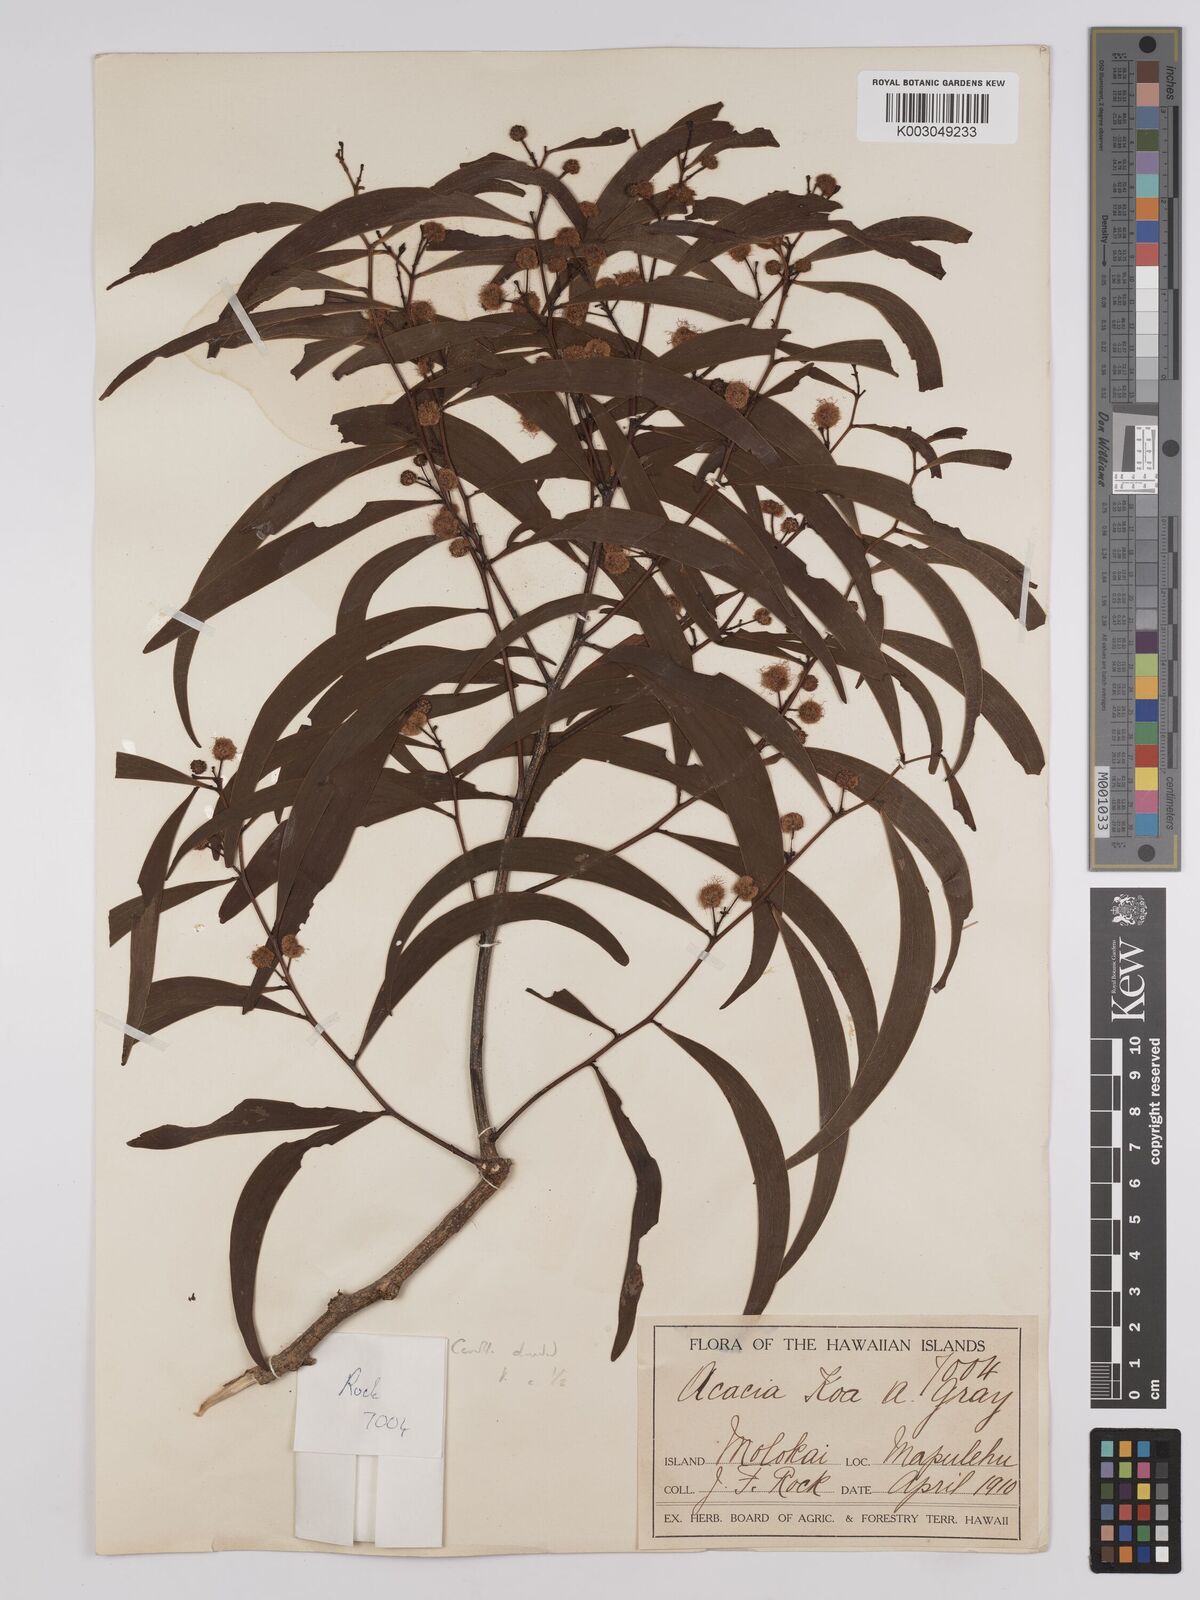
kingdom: Plantae
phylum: Tracheophyta
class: Magnoliopsida
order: Fabales
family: Fabaceae
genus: Acacia
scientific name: Acacia koa
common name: Gray koa
